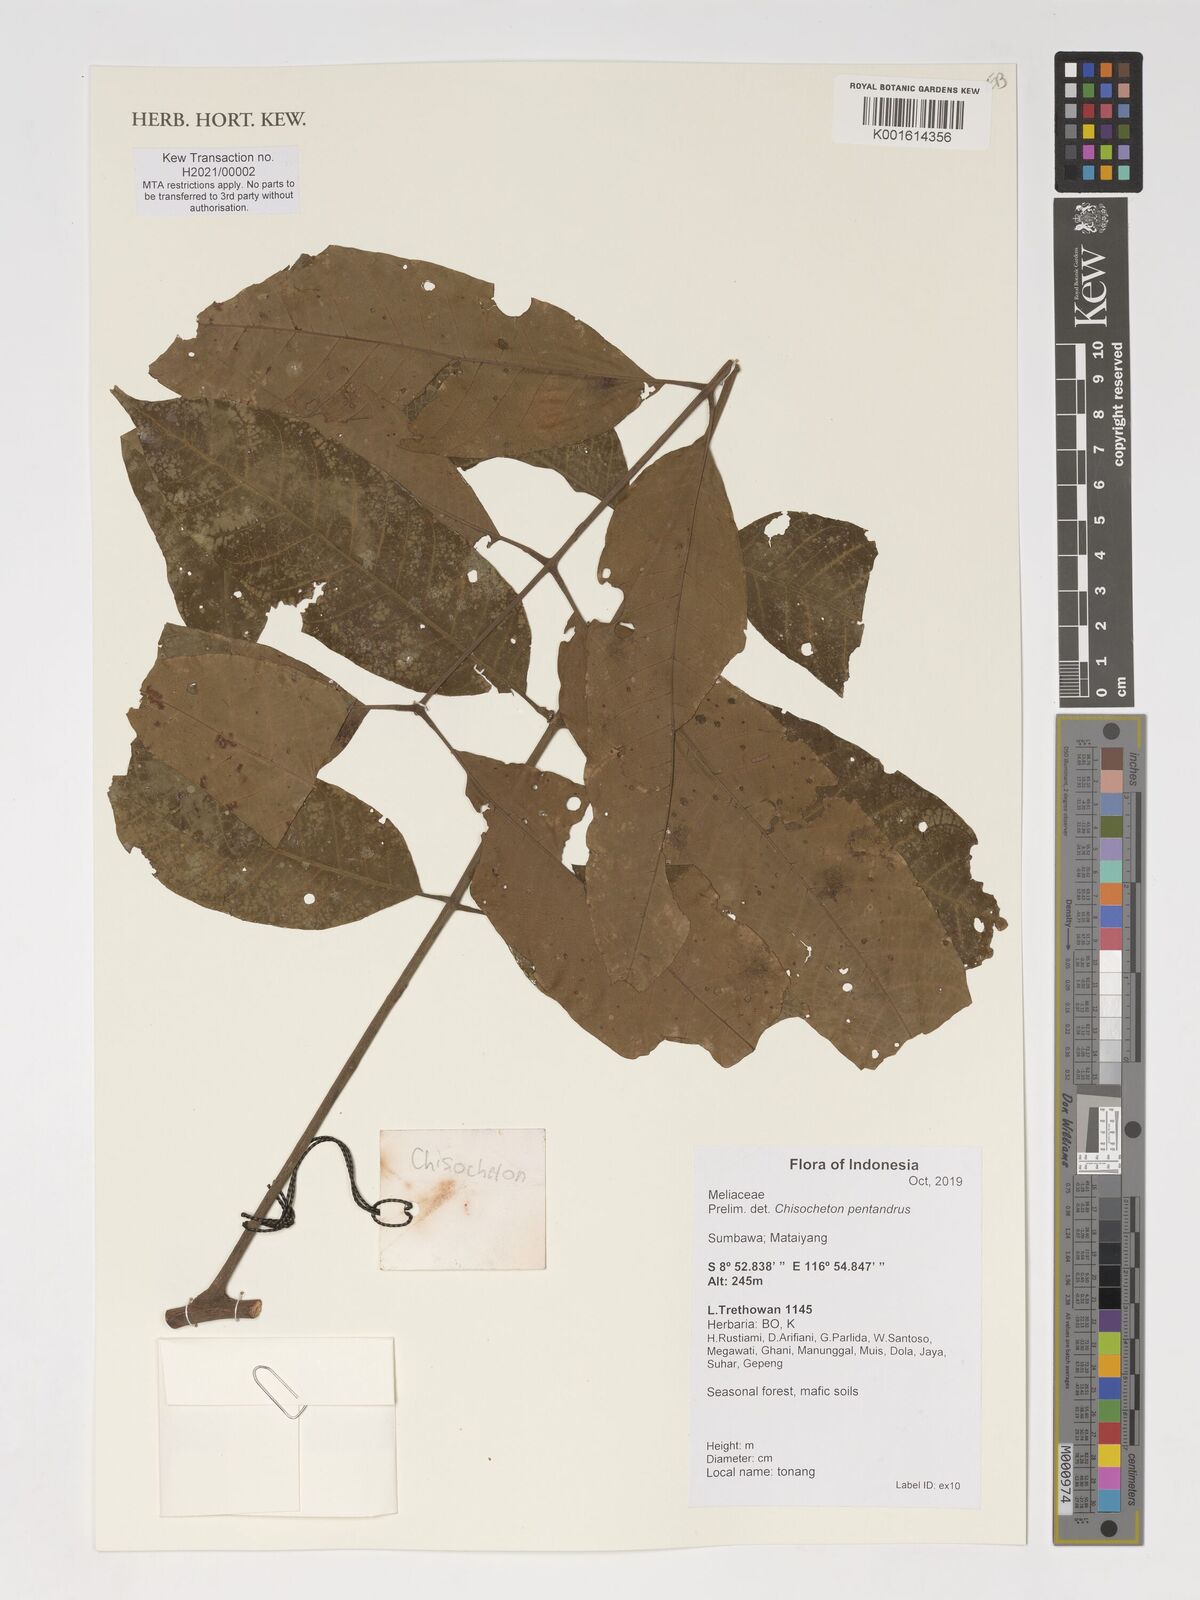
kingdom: Plantae
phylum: Tracheophyta
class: Magnoliopsida
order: Sapindales
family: Meliaceae
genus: Chisocheton
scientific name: Chisocheton pentandrus
